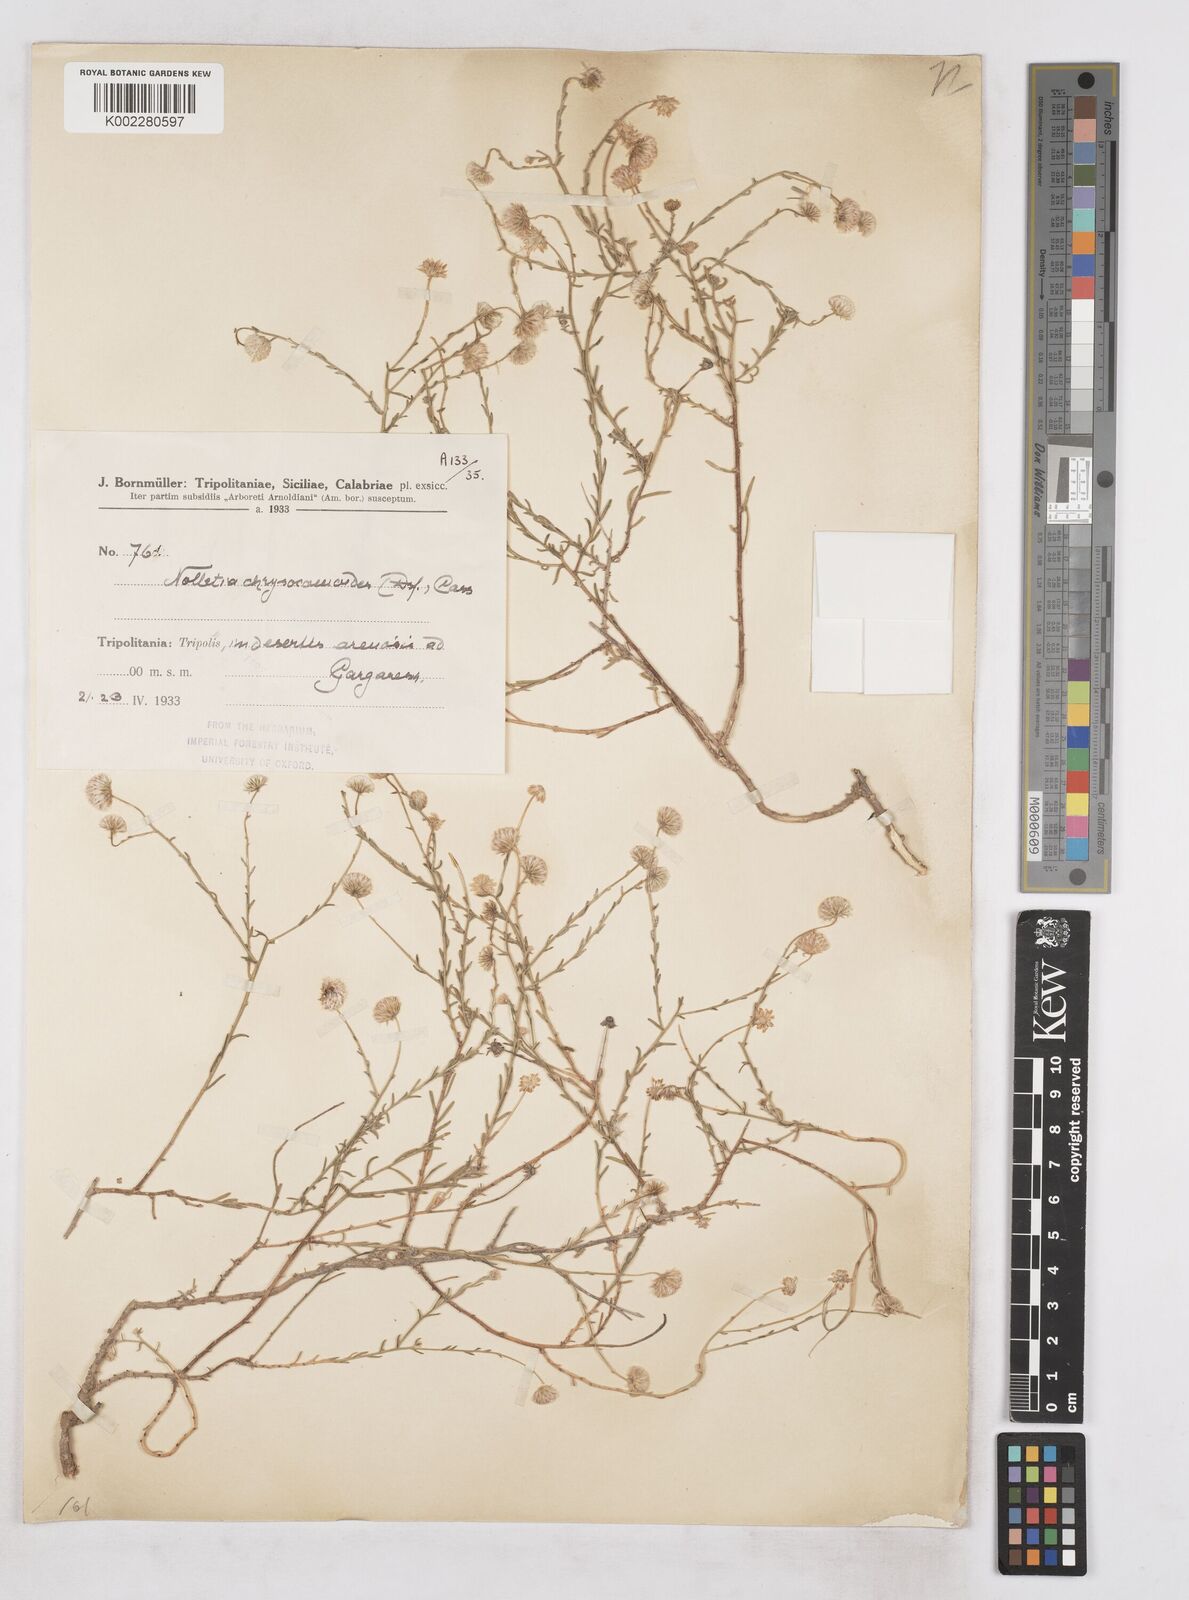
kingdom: Plantae
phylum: Tracheophyta
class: Magnoliopsida
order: Asterales
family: Asteraceae
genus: Nolletia
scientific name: Nolletia chrysocomoides
